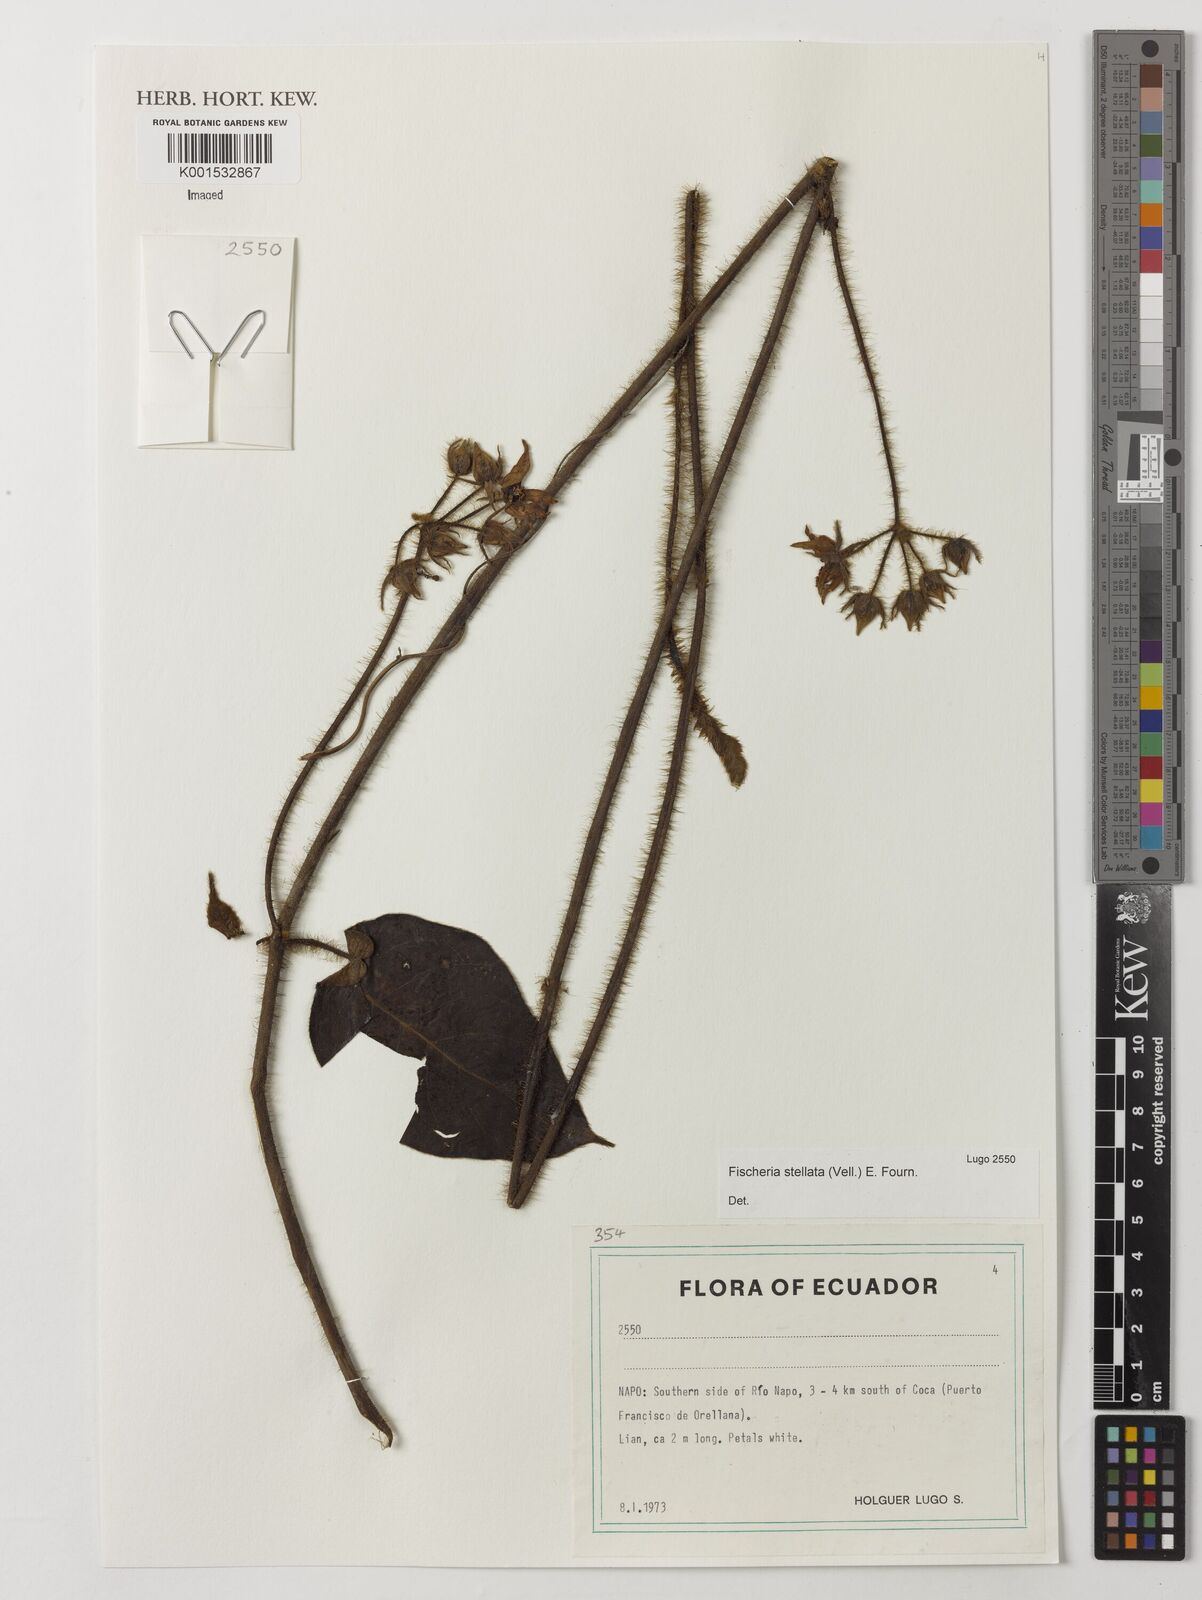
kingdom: Plantae
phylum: Tracheophyta
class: Magnoliopsida
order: Gentianales
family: Apocynaceae
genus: Fischeria
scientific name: Fischeria stellata
